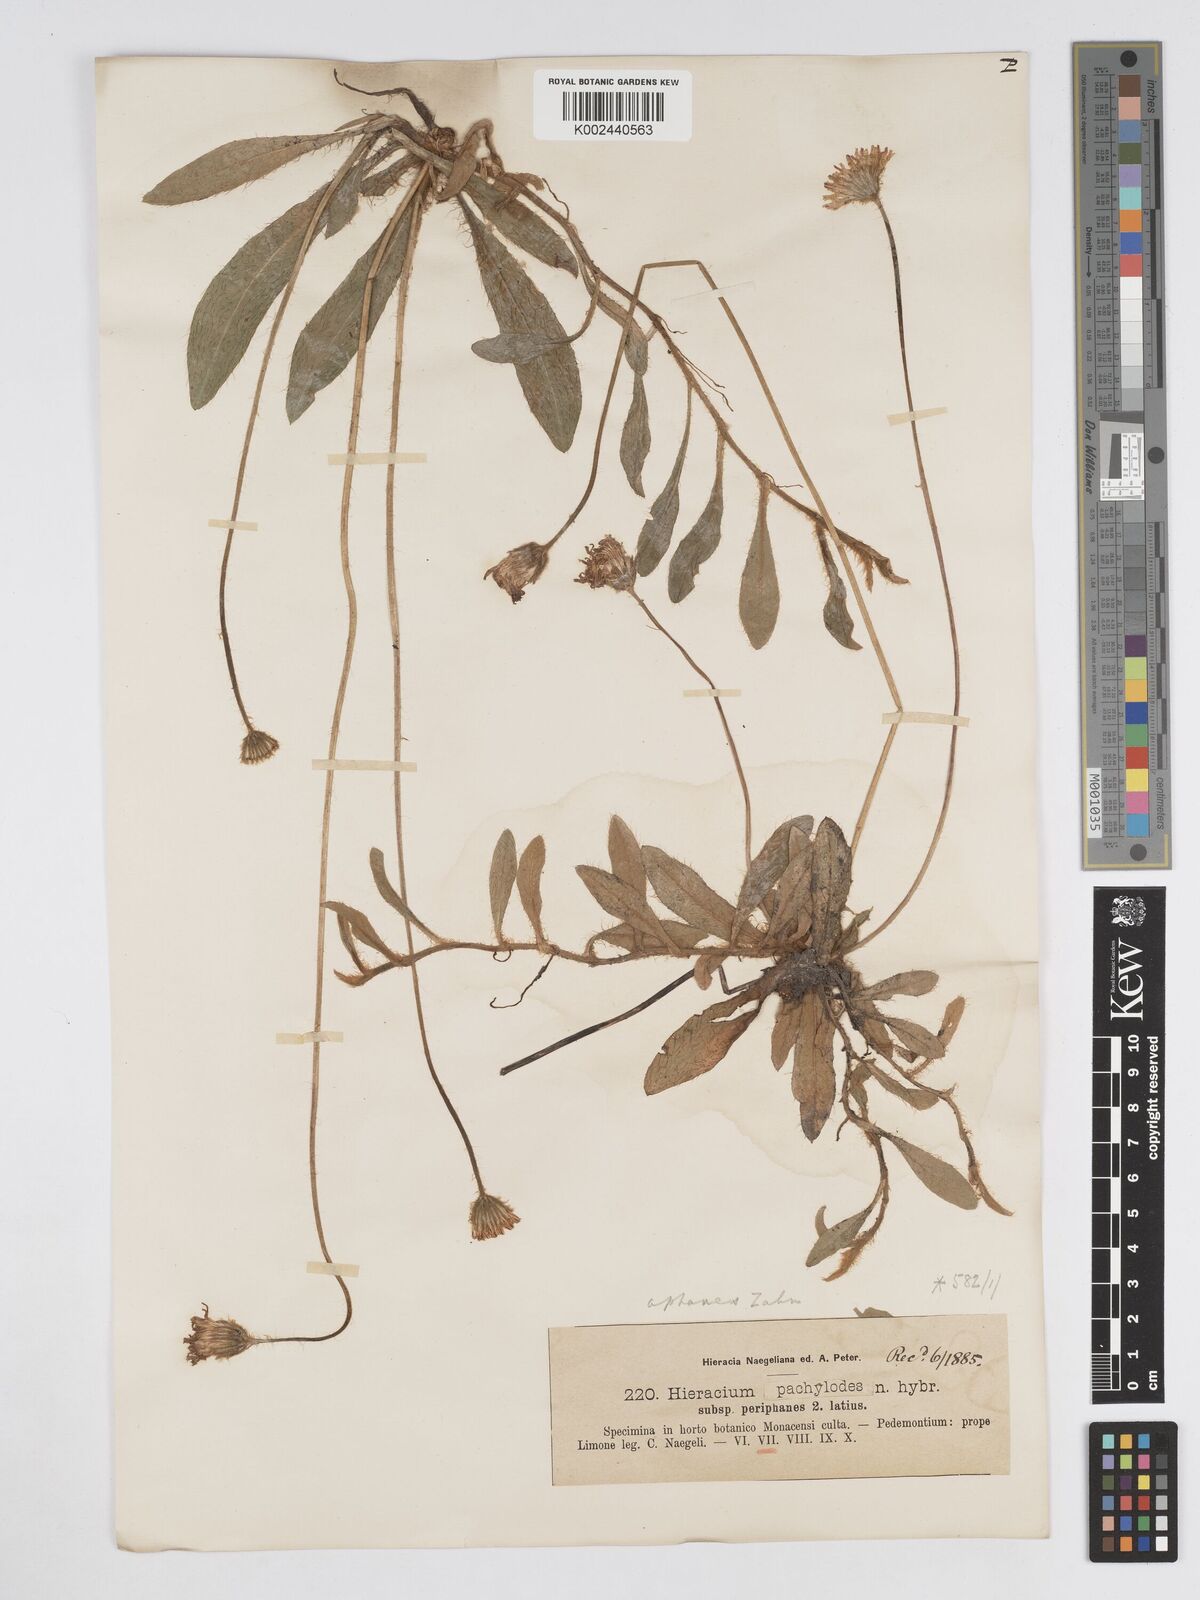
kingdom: Plantae
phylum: Tracheophyta
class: Magnoliopsida
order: Asterales
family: Asteraceae
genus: Pilosella
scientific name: Pilosella longisquama
